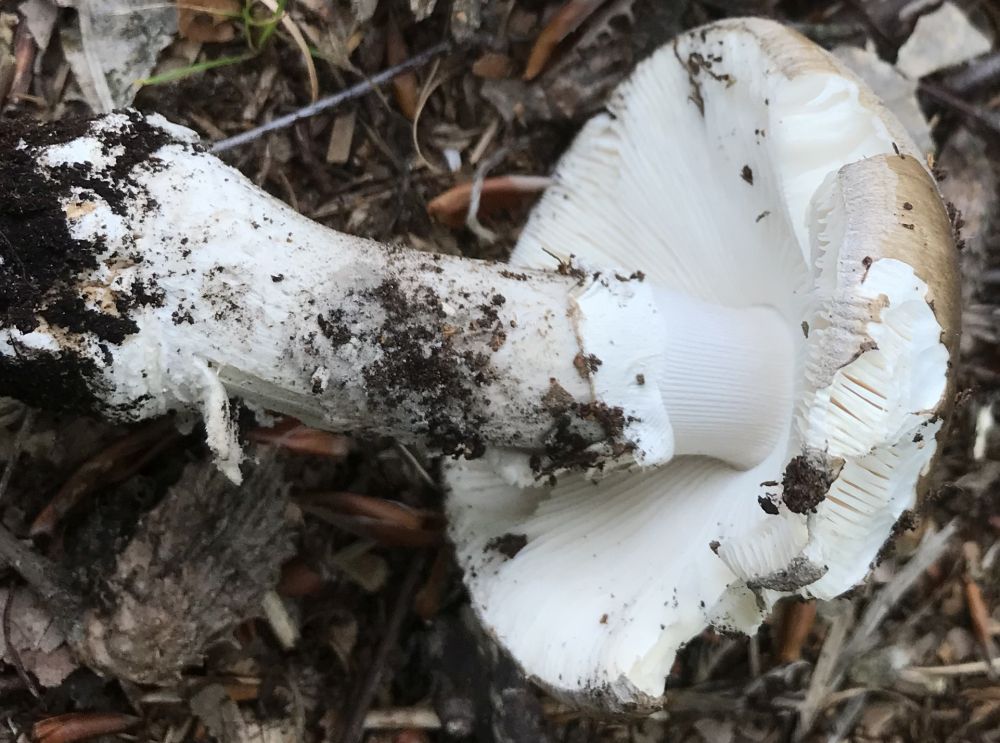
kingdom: Fungi
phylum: Basidiomycota
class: Agaricomycetes
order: Agaricales
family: Amanitaceae
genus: Amanita
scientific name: Amanita
